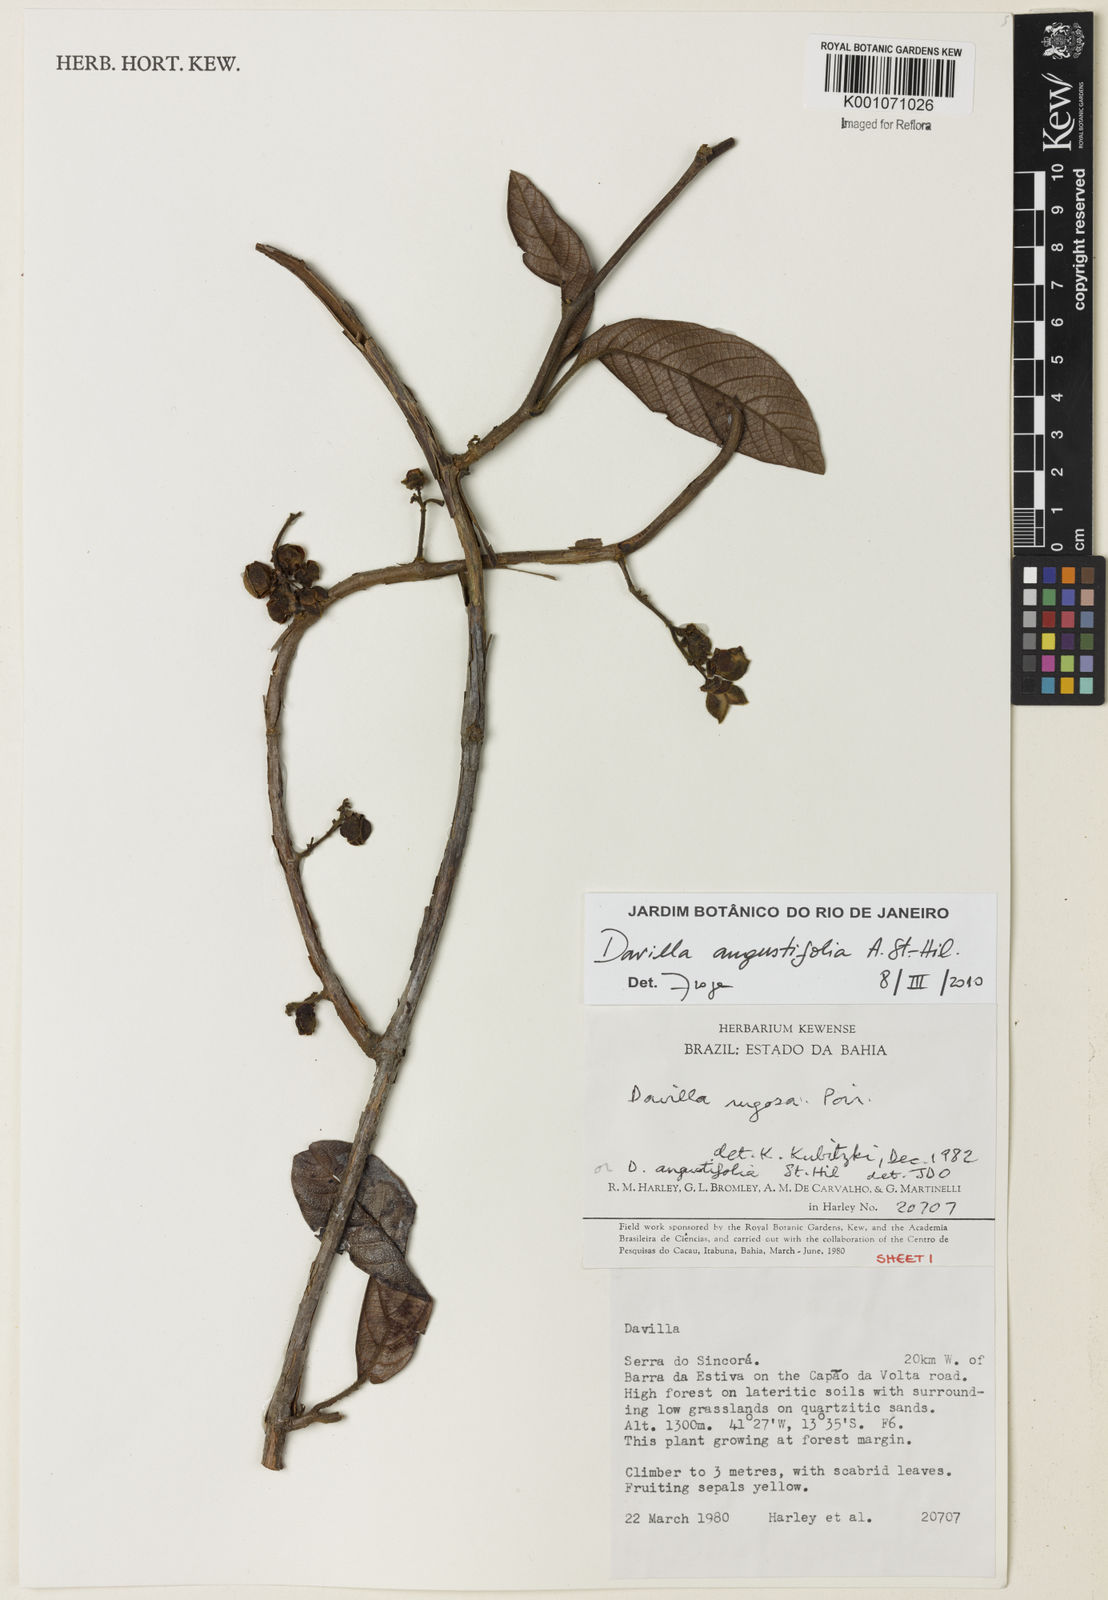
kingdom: Plantae
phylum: Tracheophyta
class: Magnoliopsida
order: Dilleniales
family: Dilleniaceae
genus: Davilla
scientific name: Davilla angustifolia
